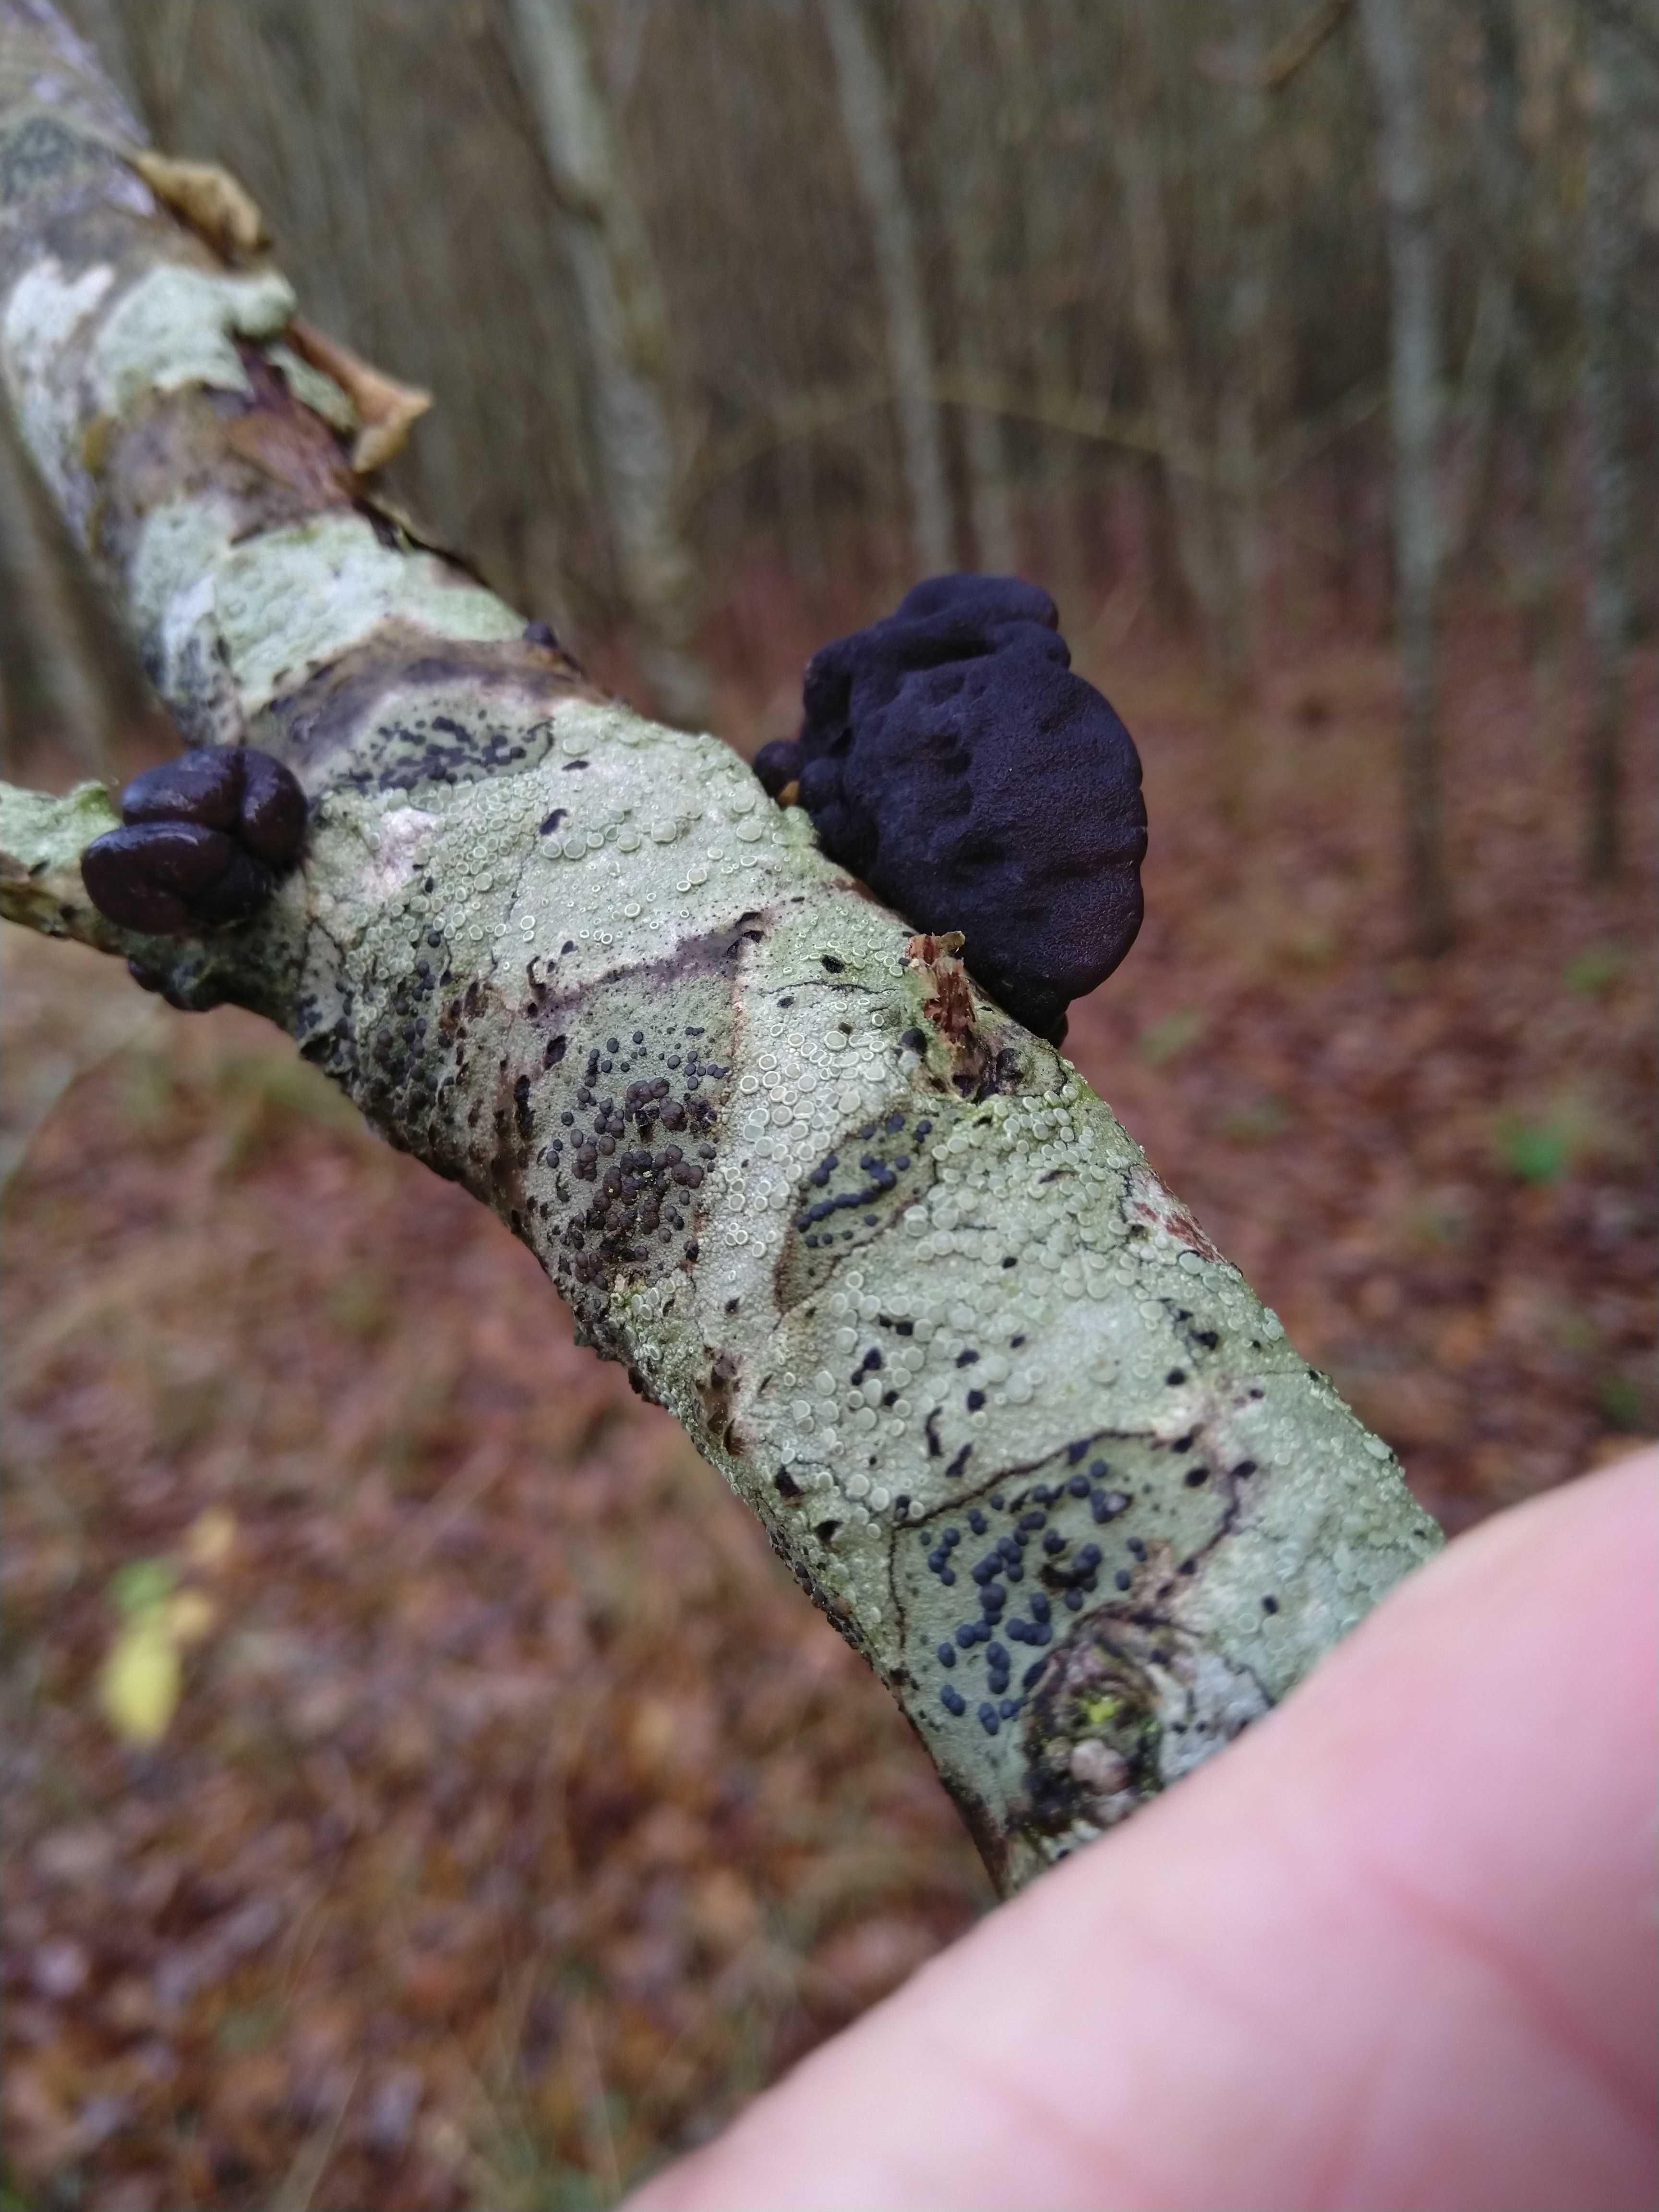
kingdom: Fungi
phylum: Basidiomycota
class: Agaricomycetes
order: Auriculariales
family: Auriculariaceae
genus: Exidia
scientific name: Exidia glandulosa
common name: ege-bævretop
